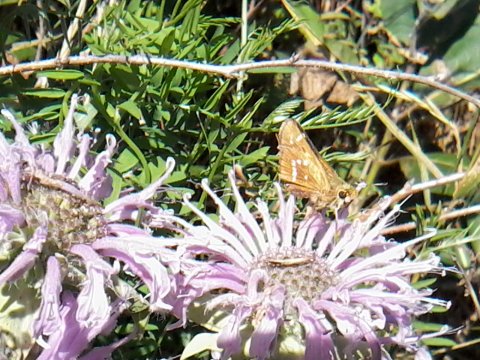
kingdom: Animalia
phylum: Arthropoda
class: Insecta
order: Lepidoptera
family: Hesperiidae
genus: Hesperia
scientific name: Hesperia leonardus
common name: Leonard's Skipper
